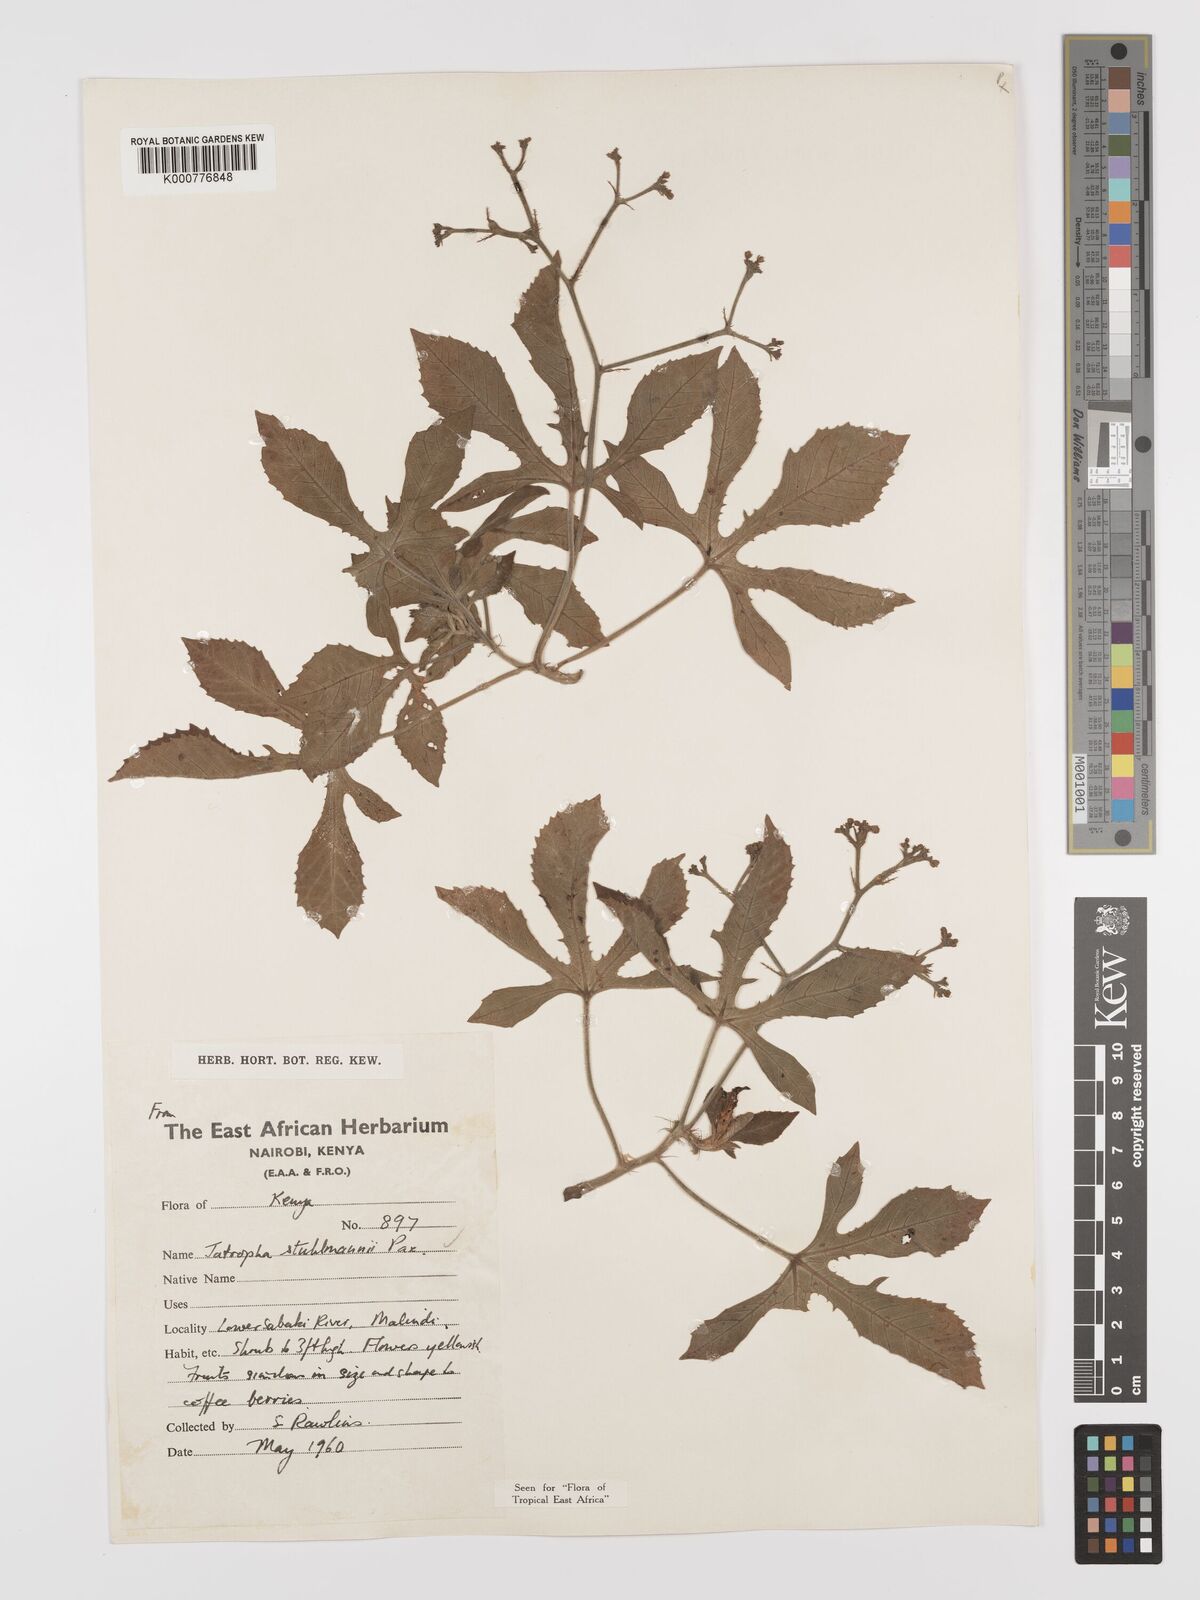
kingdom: Plantae
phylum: Tracheophyta
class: Magnoliopsida
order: Malpighiales
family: Euphorbiaceae
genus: Jatropha
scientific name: Jatropha stuhlmannii
